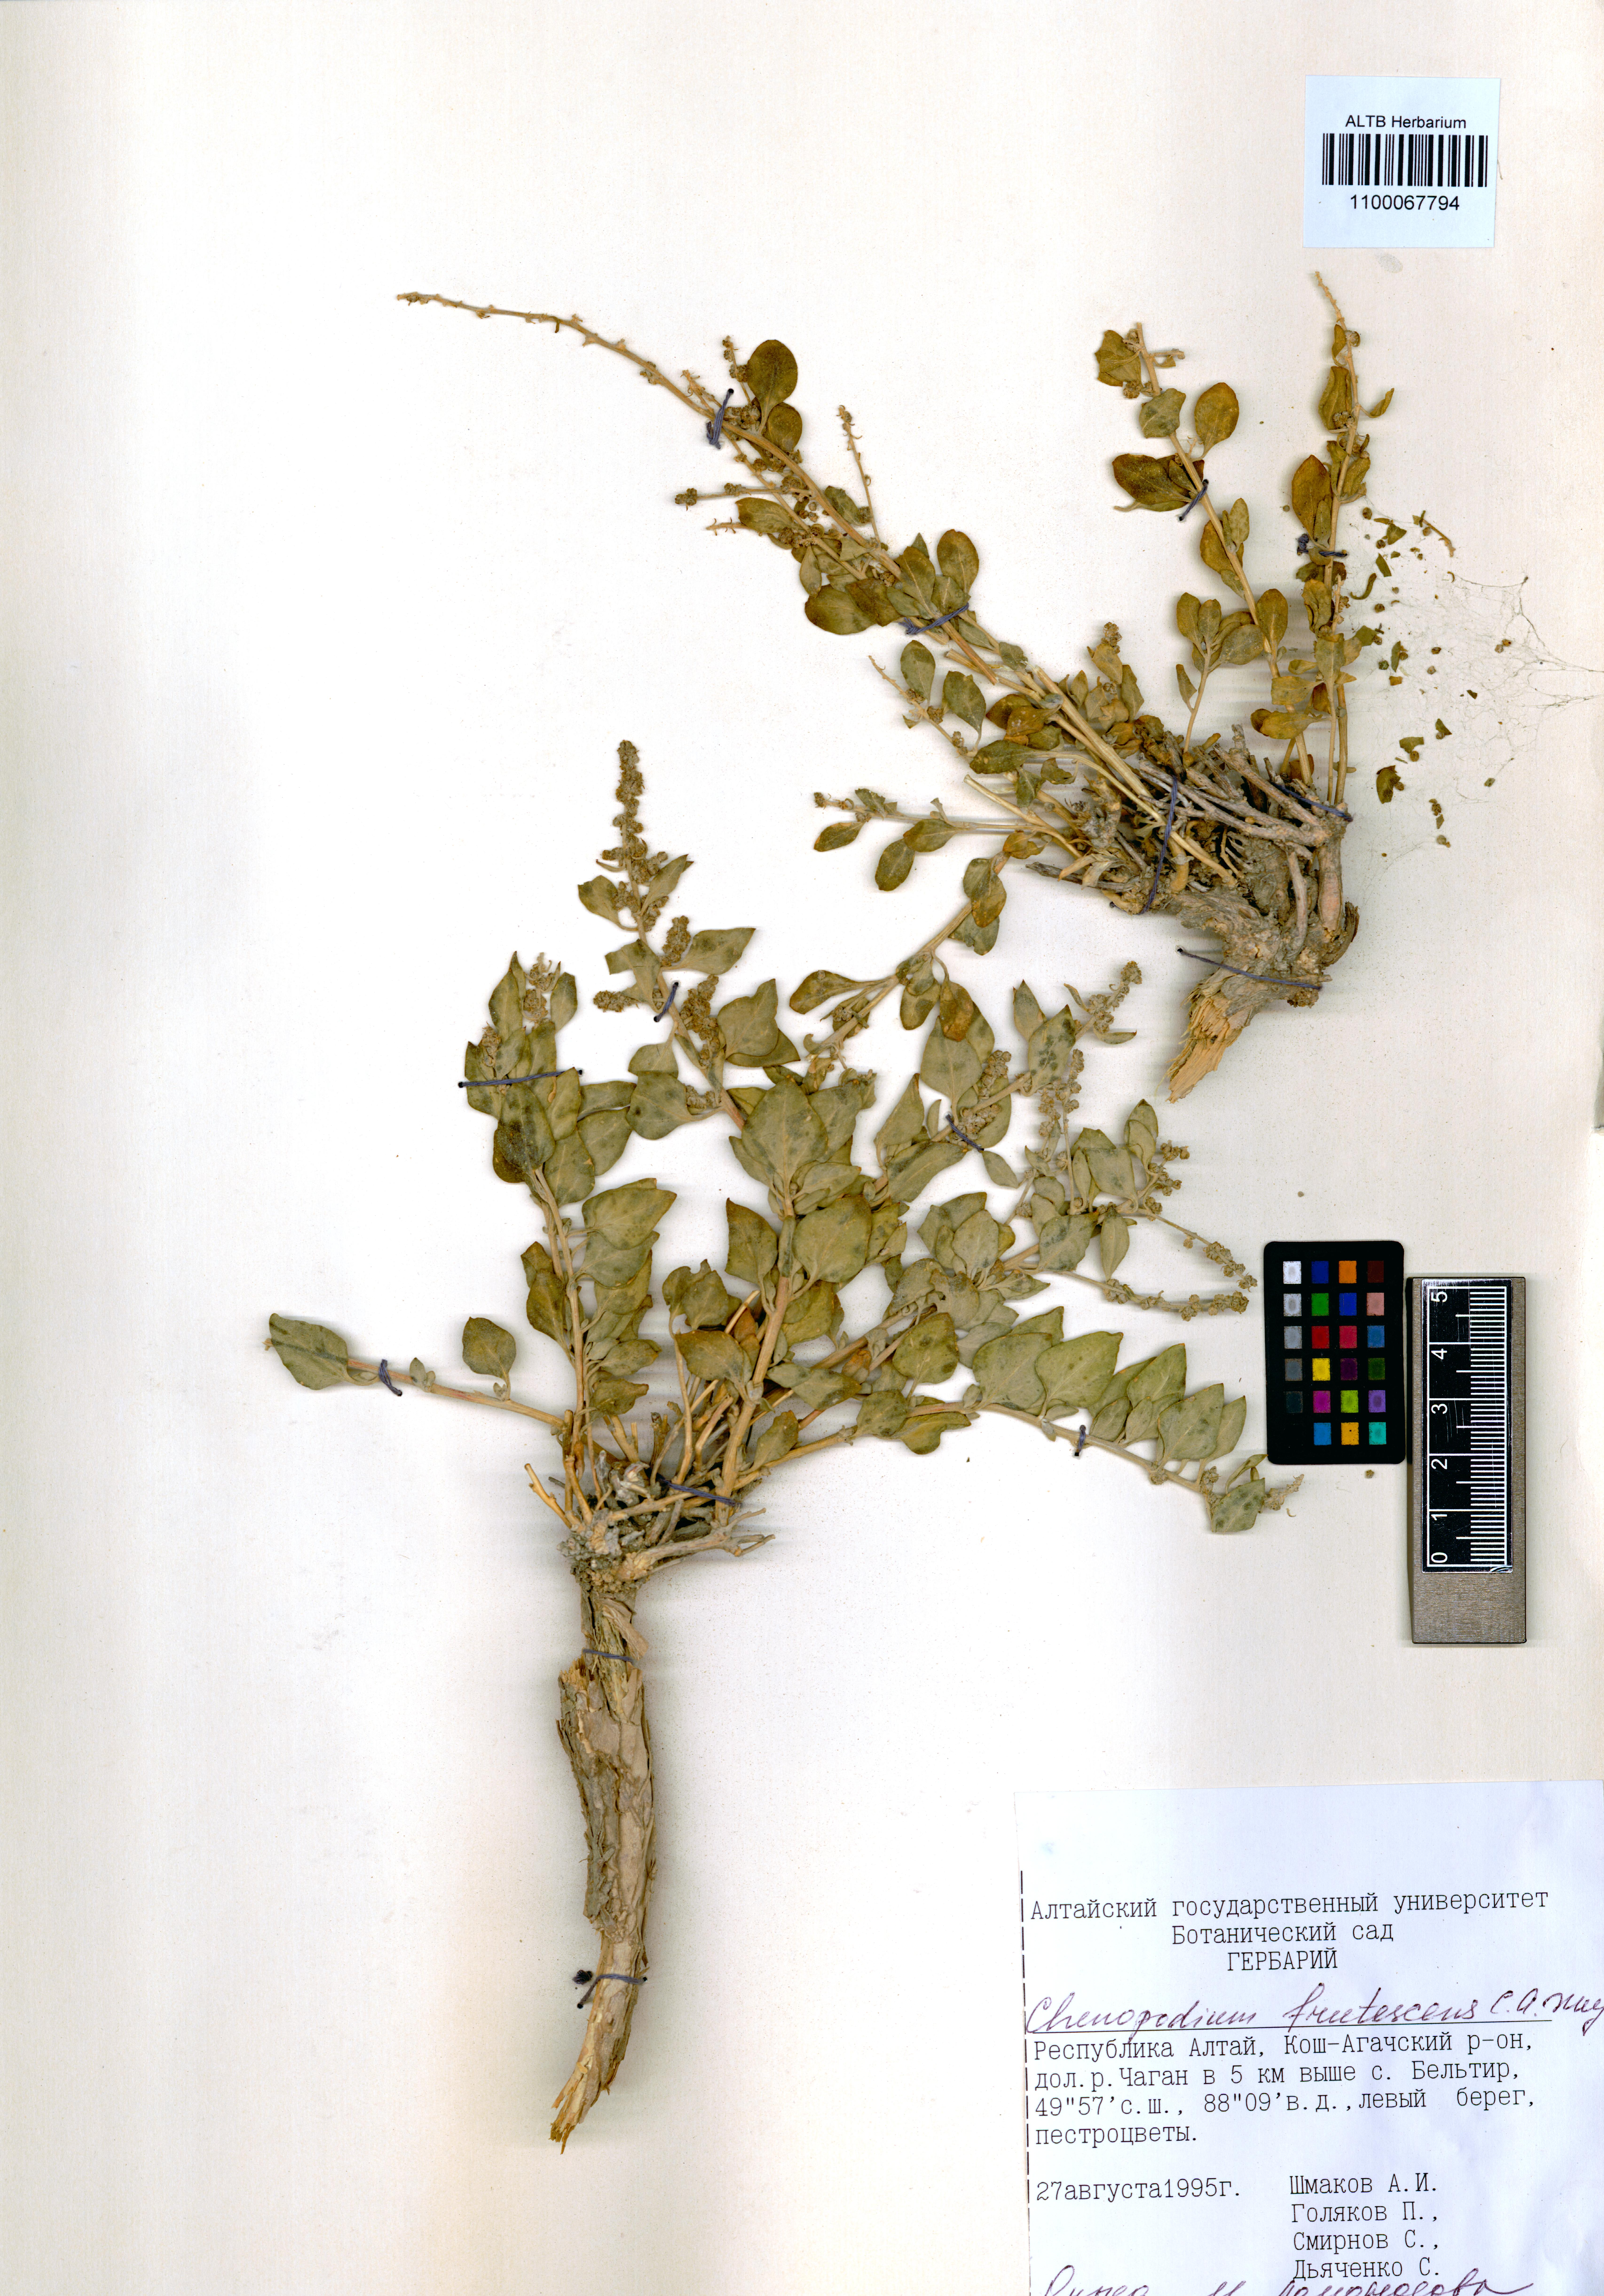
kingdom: Plantae
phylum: Tracheophyta
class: Magnoliopsida
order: Caryophyllales
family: Amaranthaceae
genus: Chenopodium
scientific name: Chenopodium frutescens
